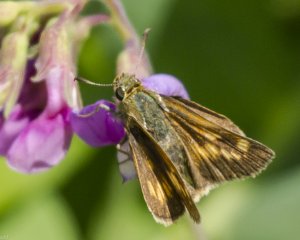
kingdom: Animalia
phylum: Arthropoda
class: Insecta
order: Lepidoptera
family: Hesperiidae
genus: Polites
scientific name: Polites
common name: Long Dash Skipper
